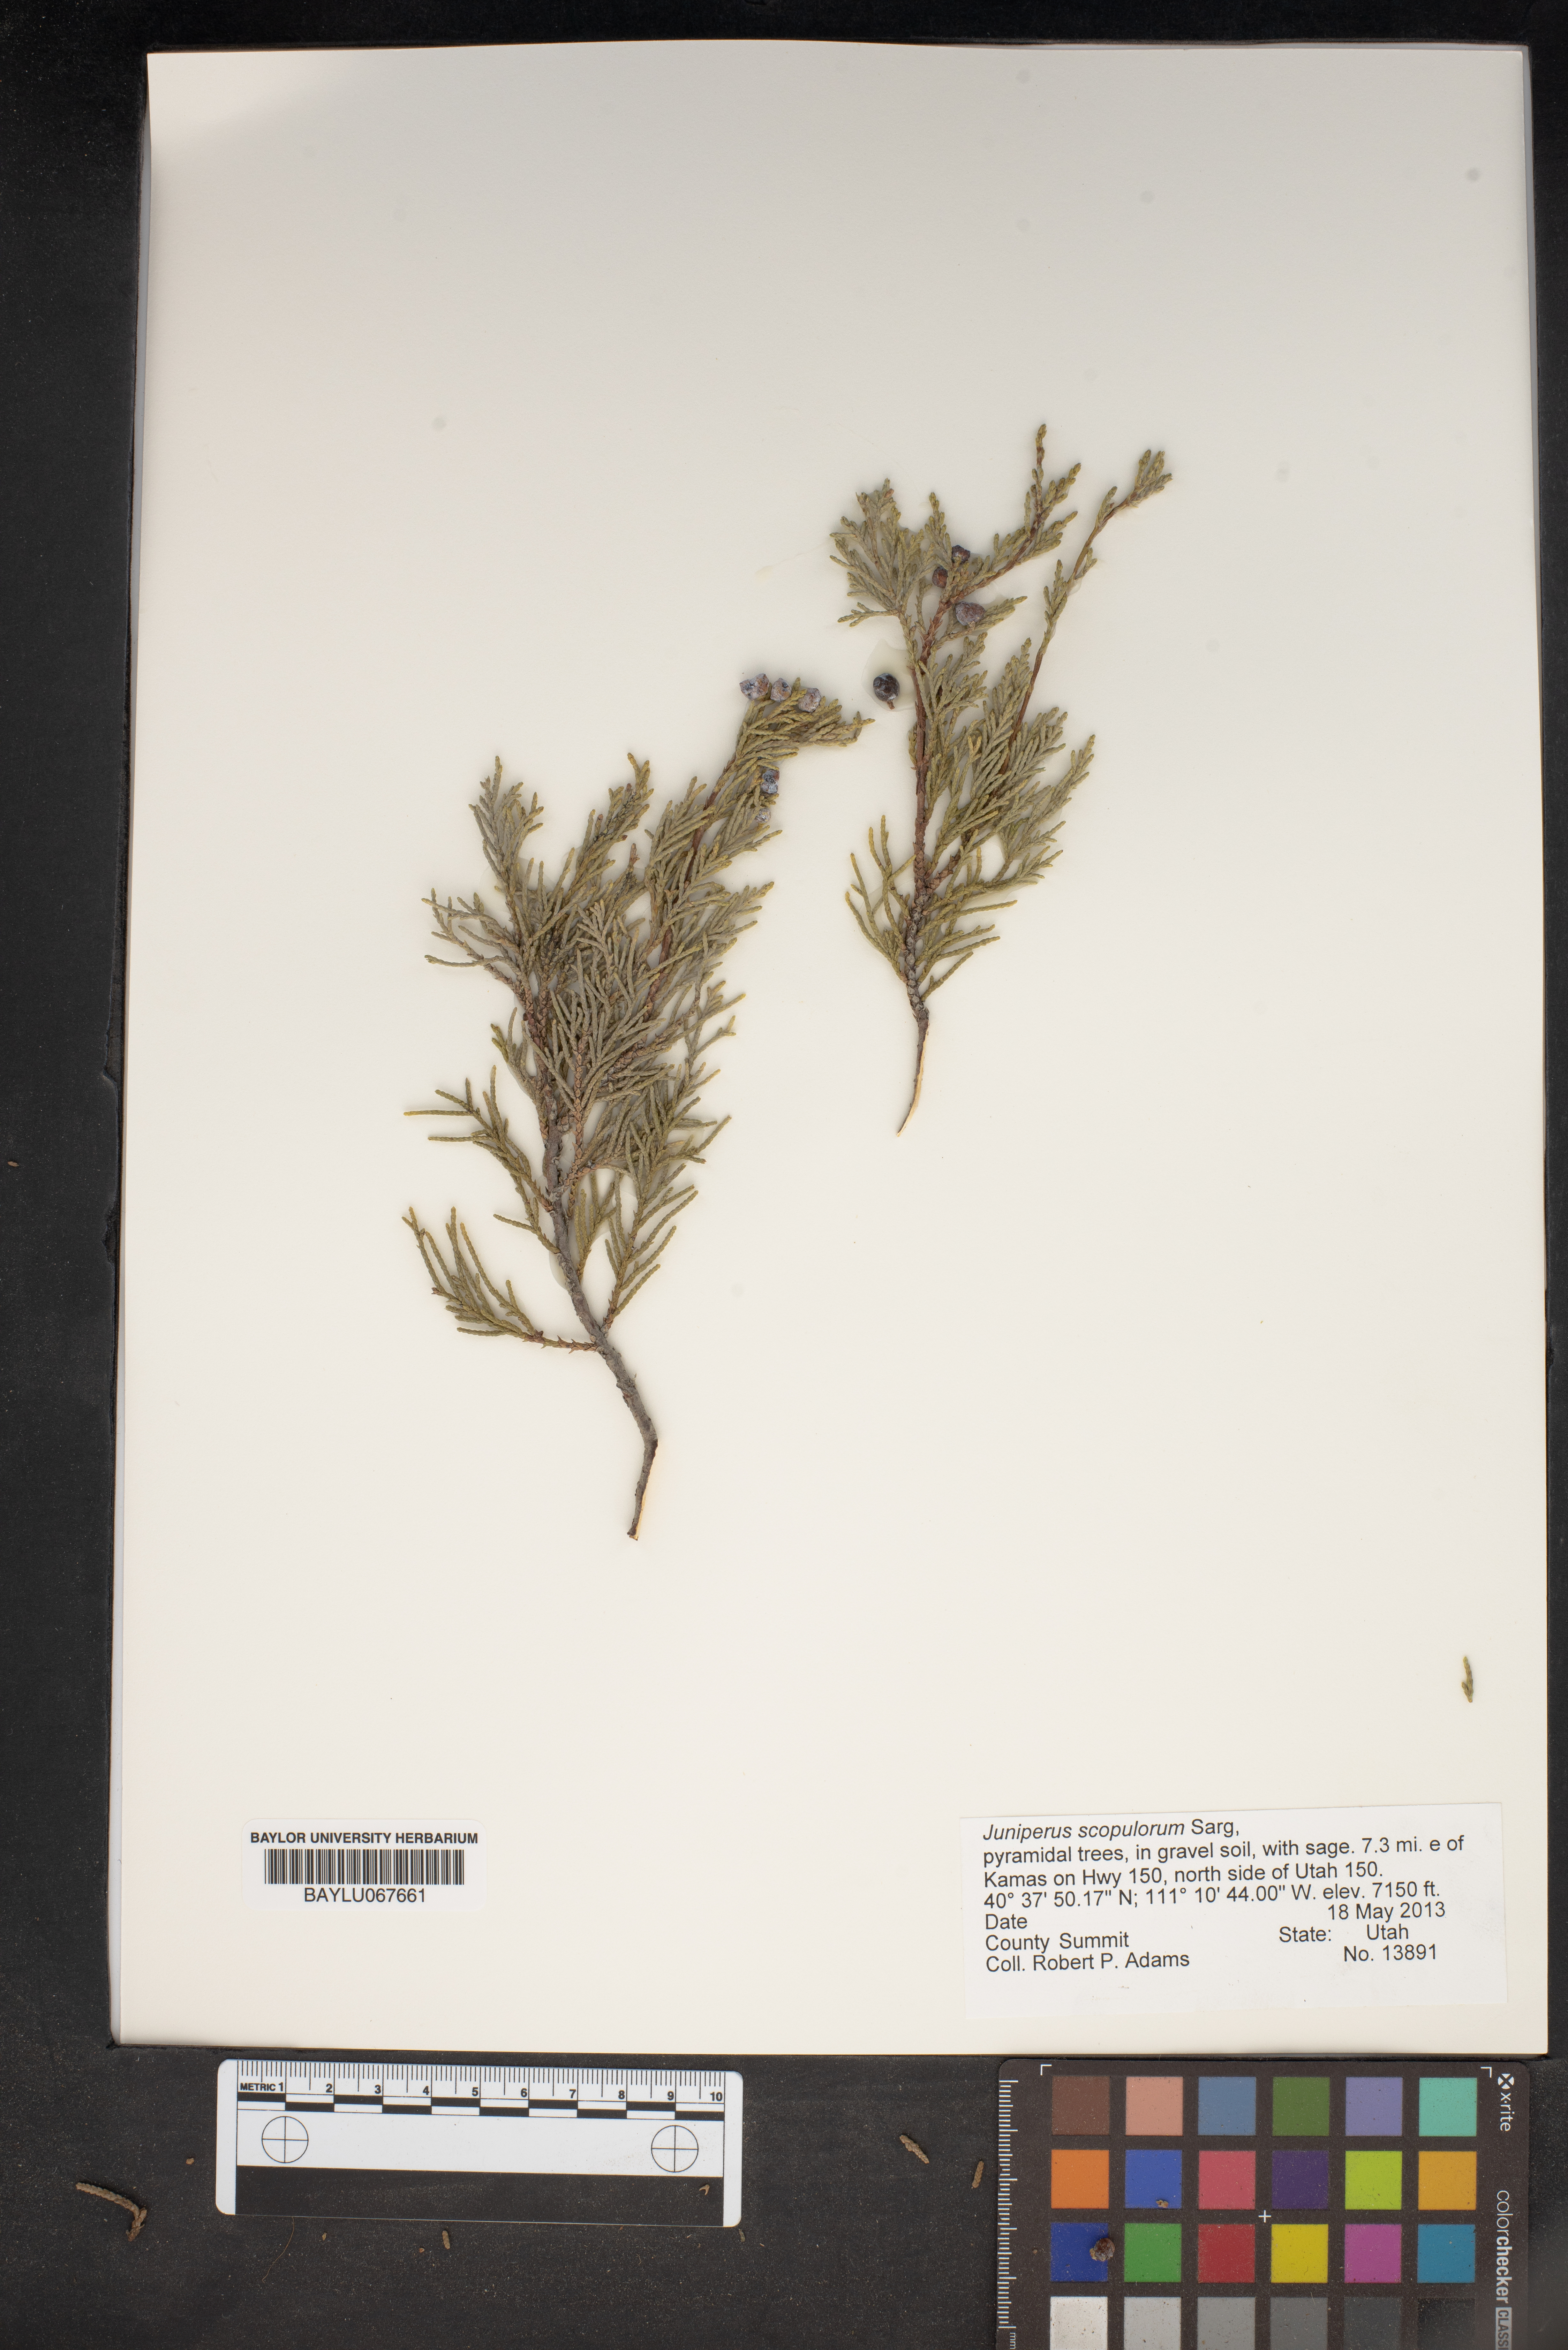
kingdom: Plantae
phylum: Tracheophyta
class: Pinopsida
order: Pinales
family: Cupressaceae
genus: Juniperus
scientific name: Juniperus scopulorum
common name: Rocky mountain juniper
